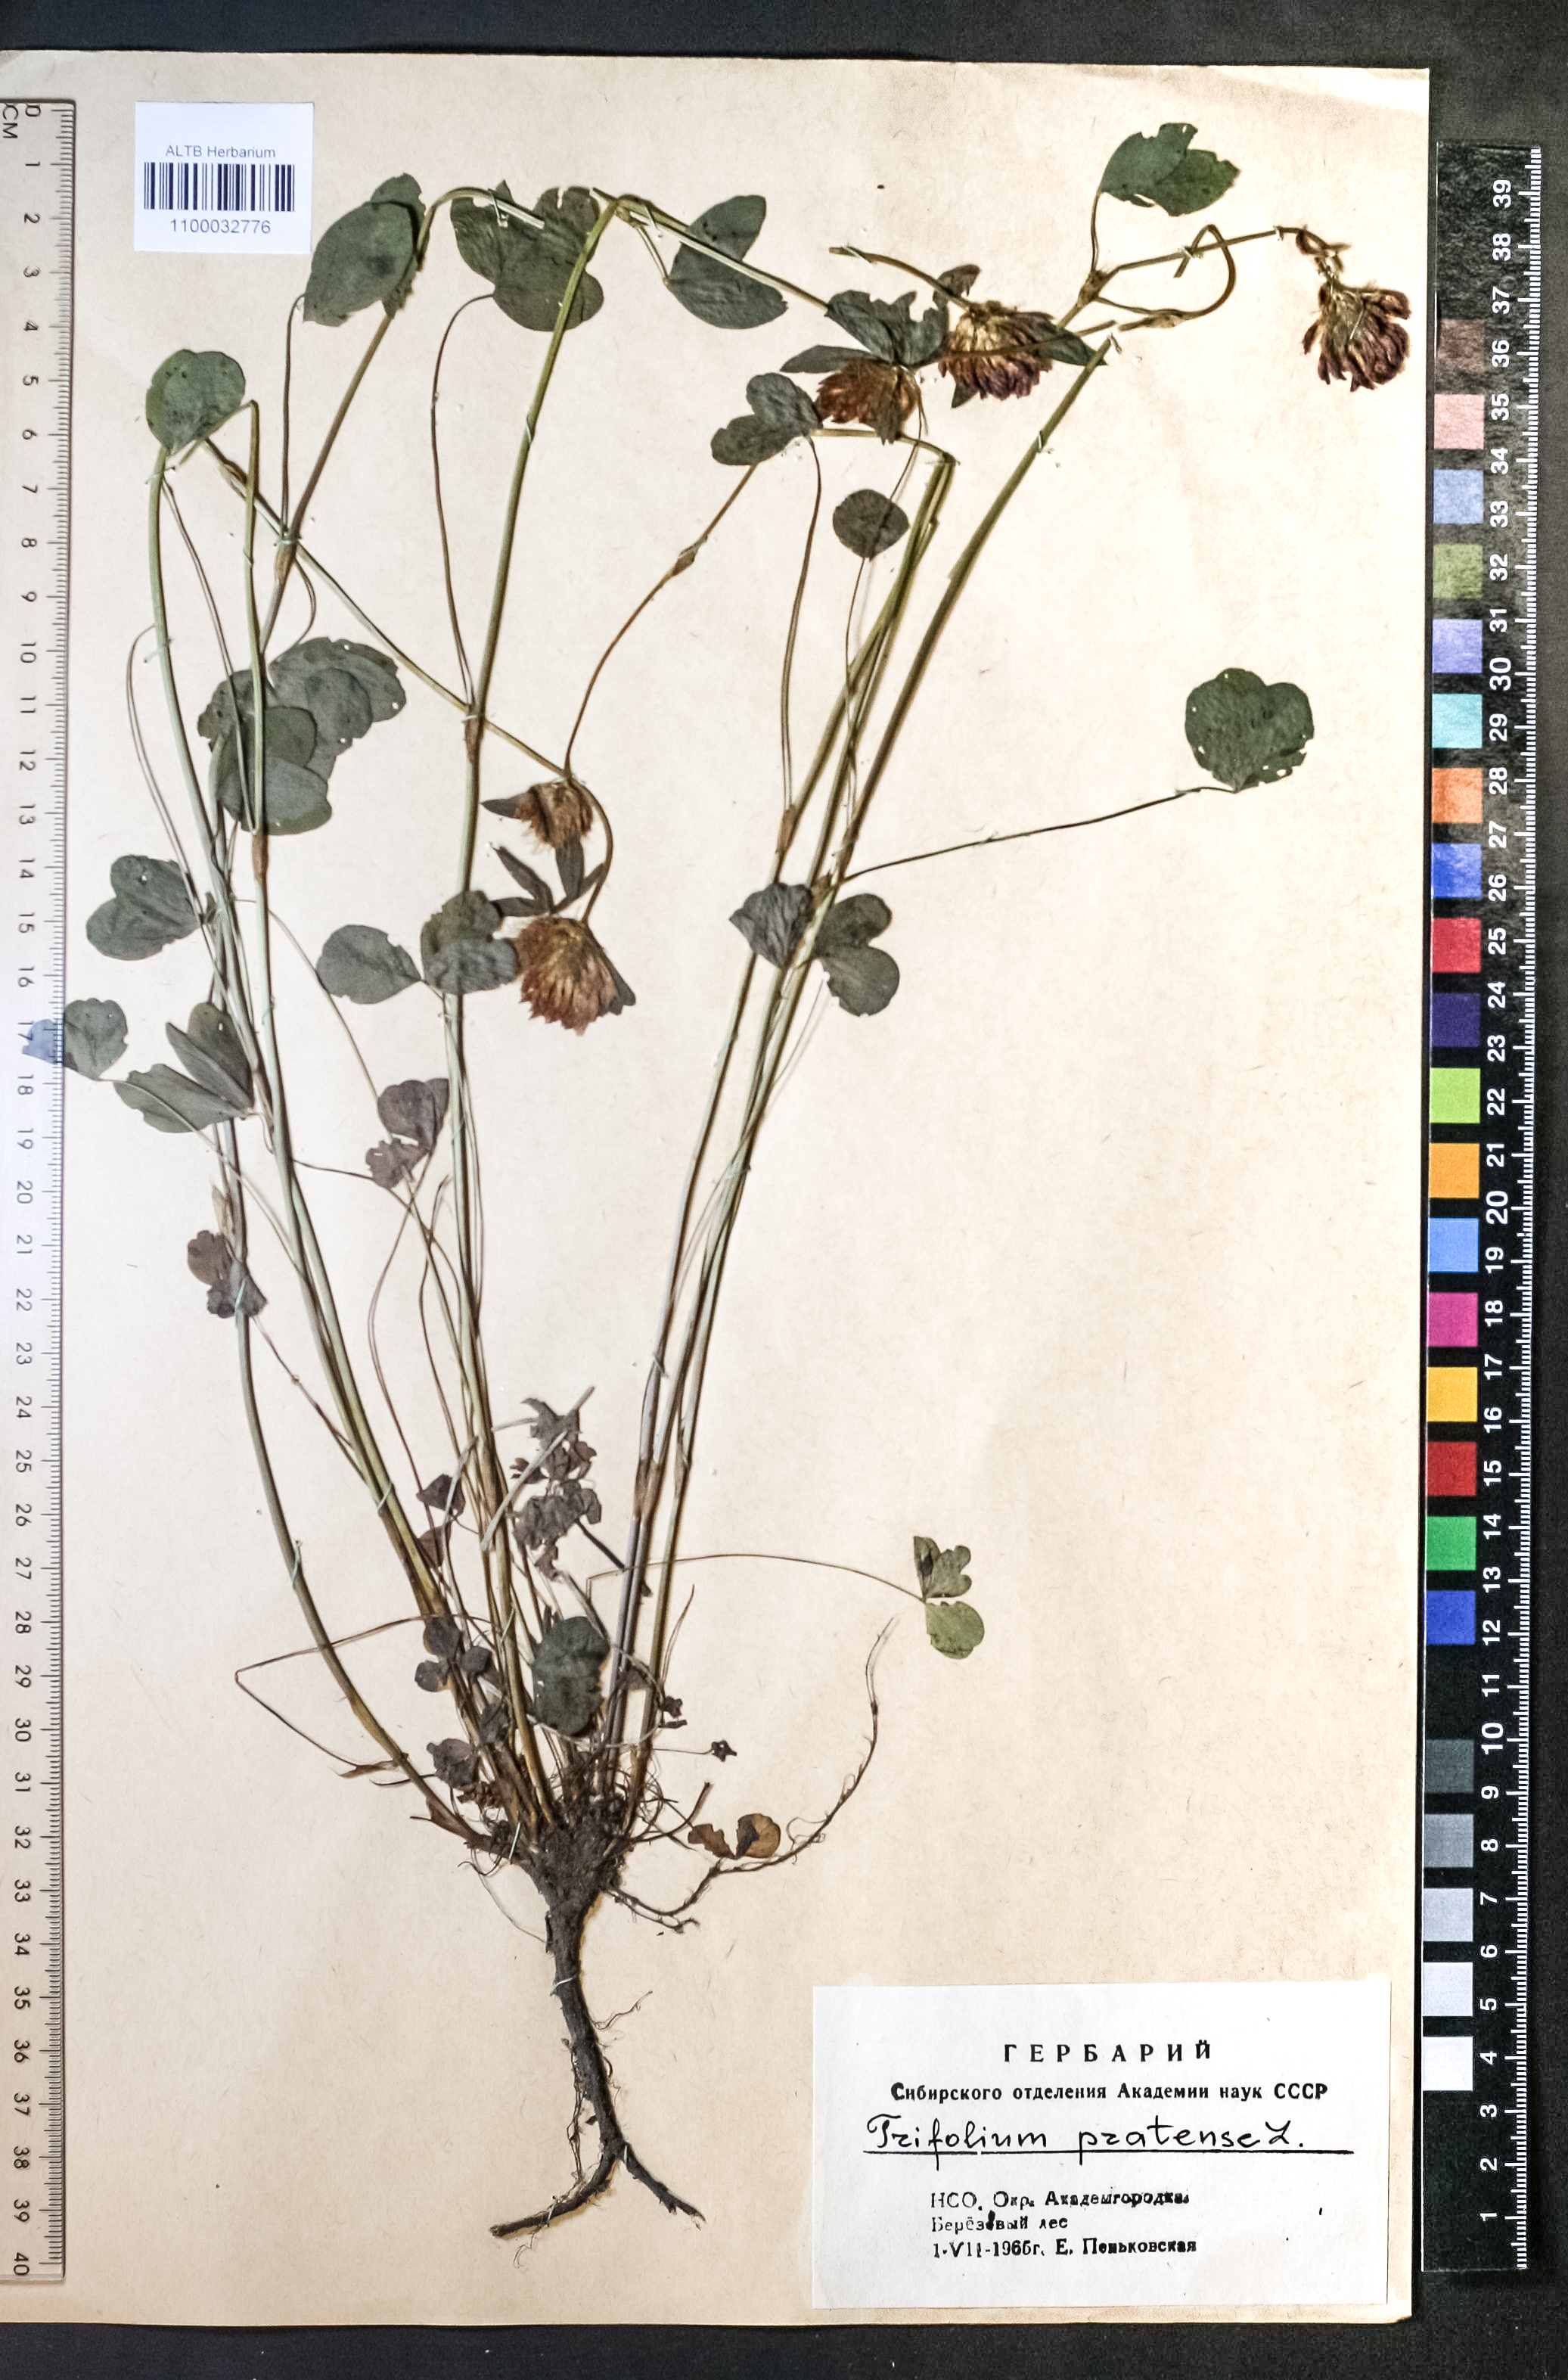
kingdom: Plantae
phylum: Tracheophyta
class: Magnoliopsida
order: Fabales
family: Fabaceae
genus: Trifolium
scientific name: Trifolium pratense
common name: Red clover
